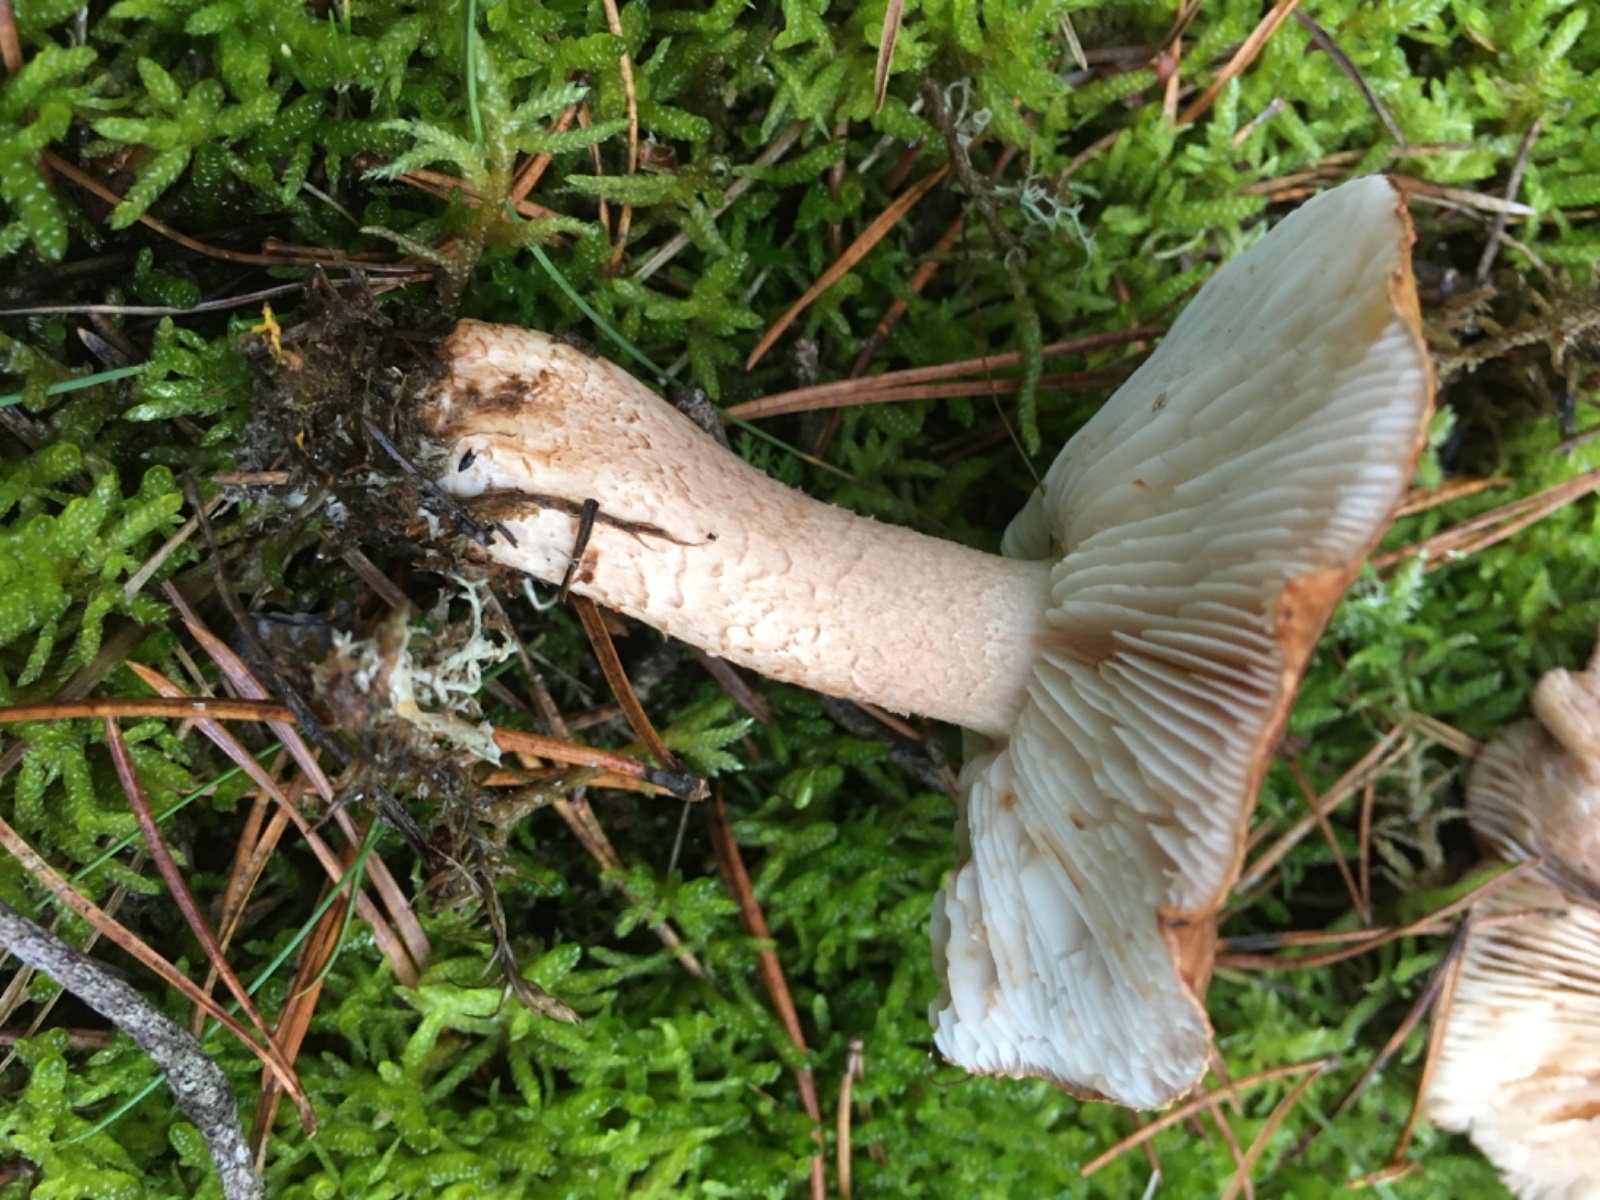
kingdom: Fungi
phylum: Basidiomycota
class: Agaricomycetes
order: Agaricales
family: Tricholomataceae
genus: Tricholoma
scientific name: Tricholoma albobrunneum
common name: kastanie-ridderhat
